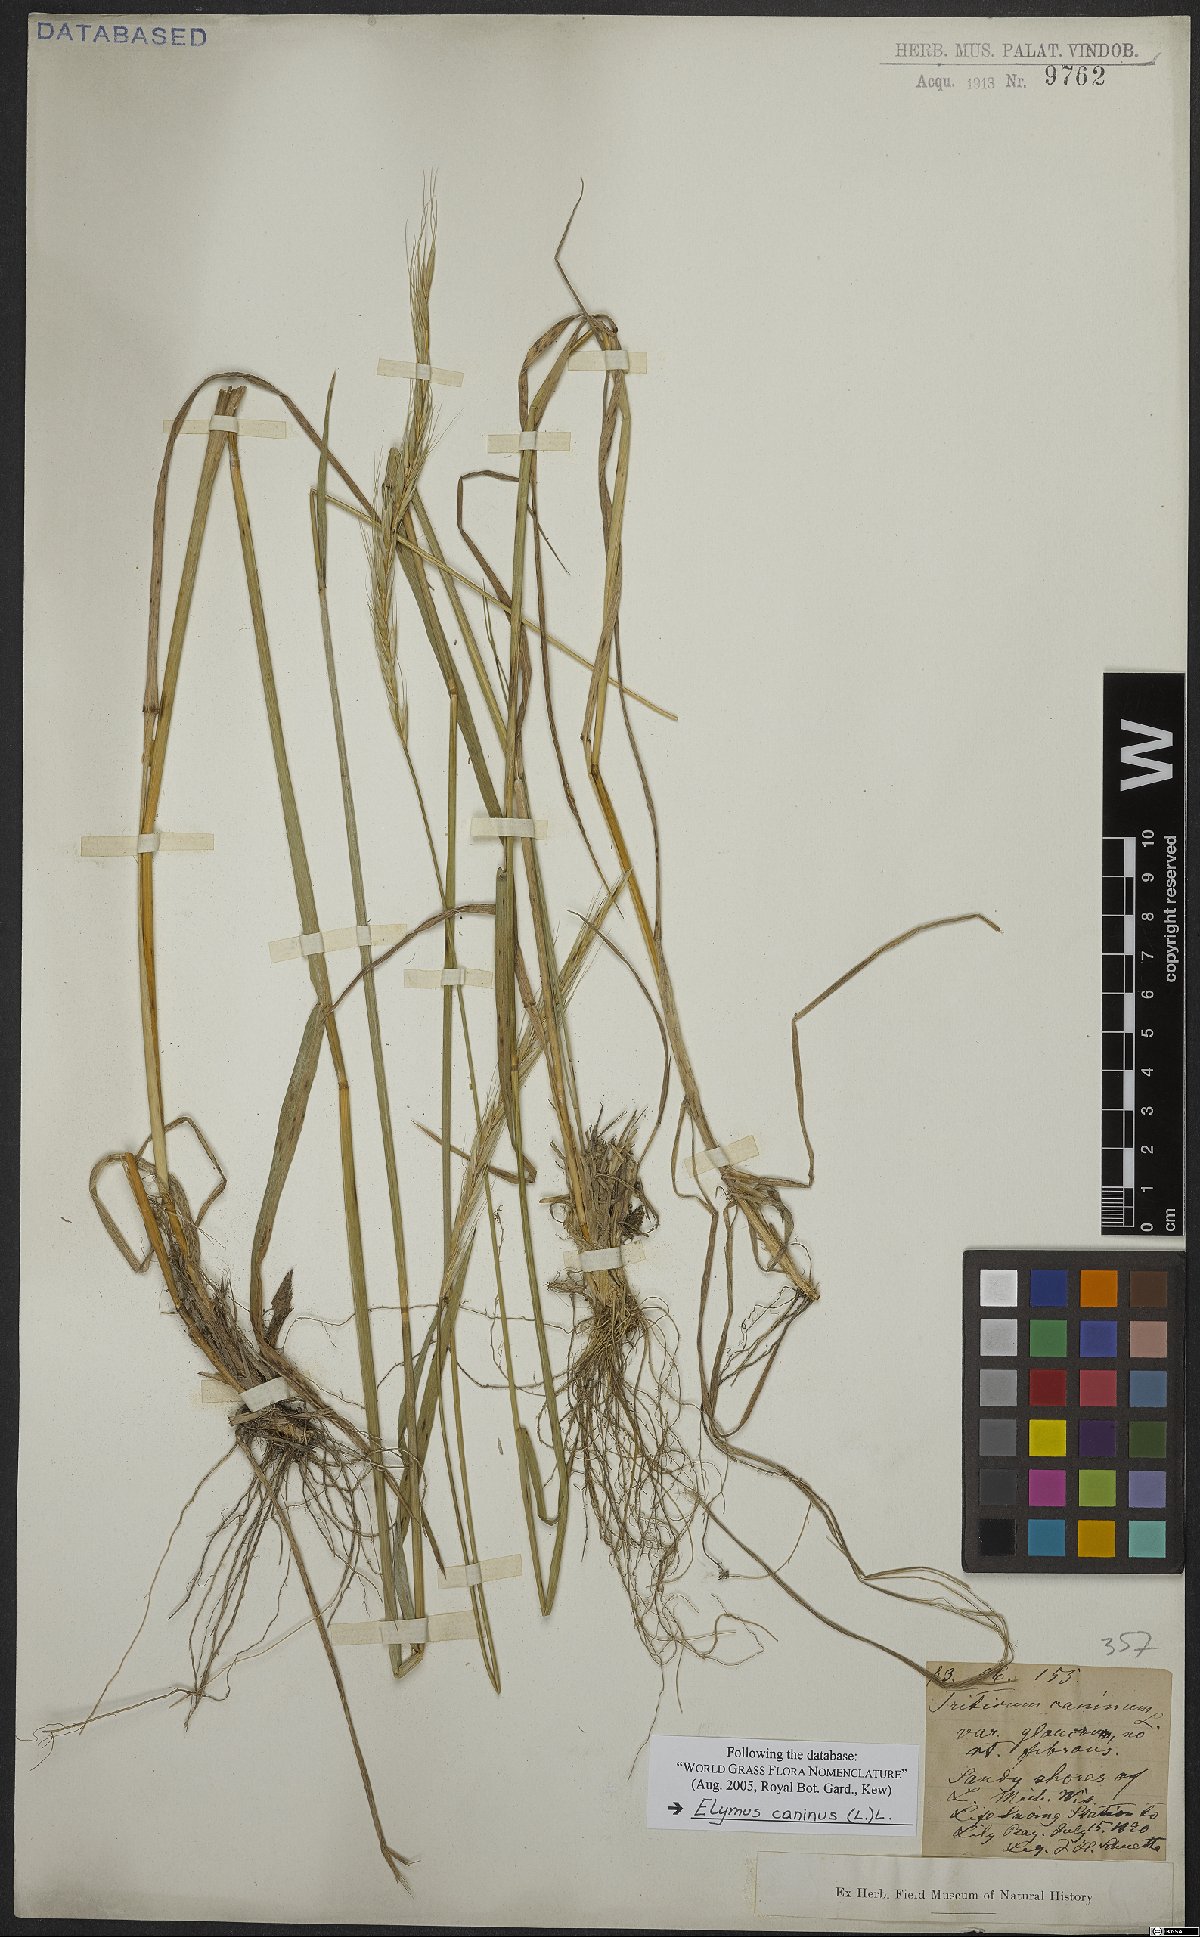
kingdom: Plantae
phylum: Tracheophyta
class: Liliopsida
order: Poales
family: Poaceae
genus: Elymus
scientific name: Elymus caninus
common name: Bearded couch
